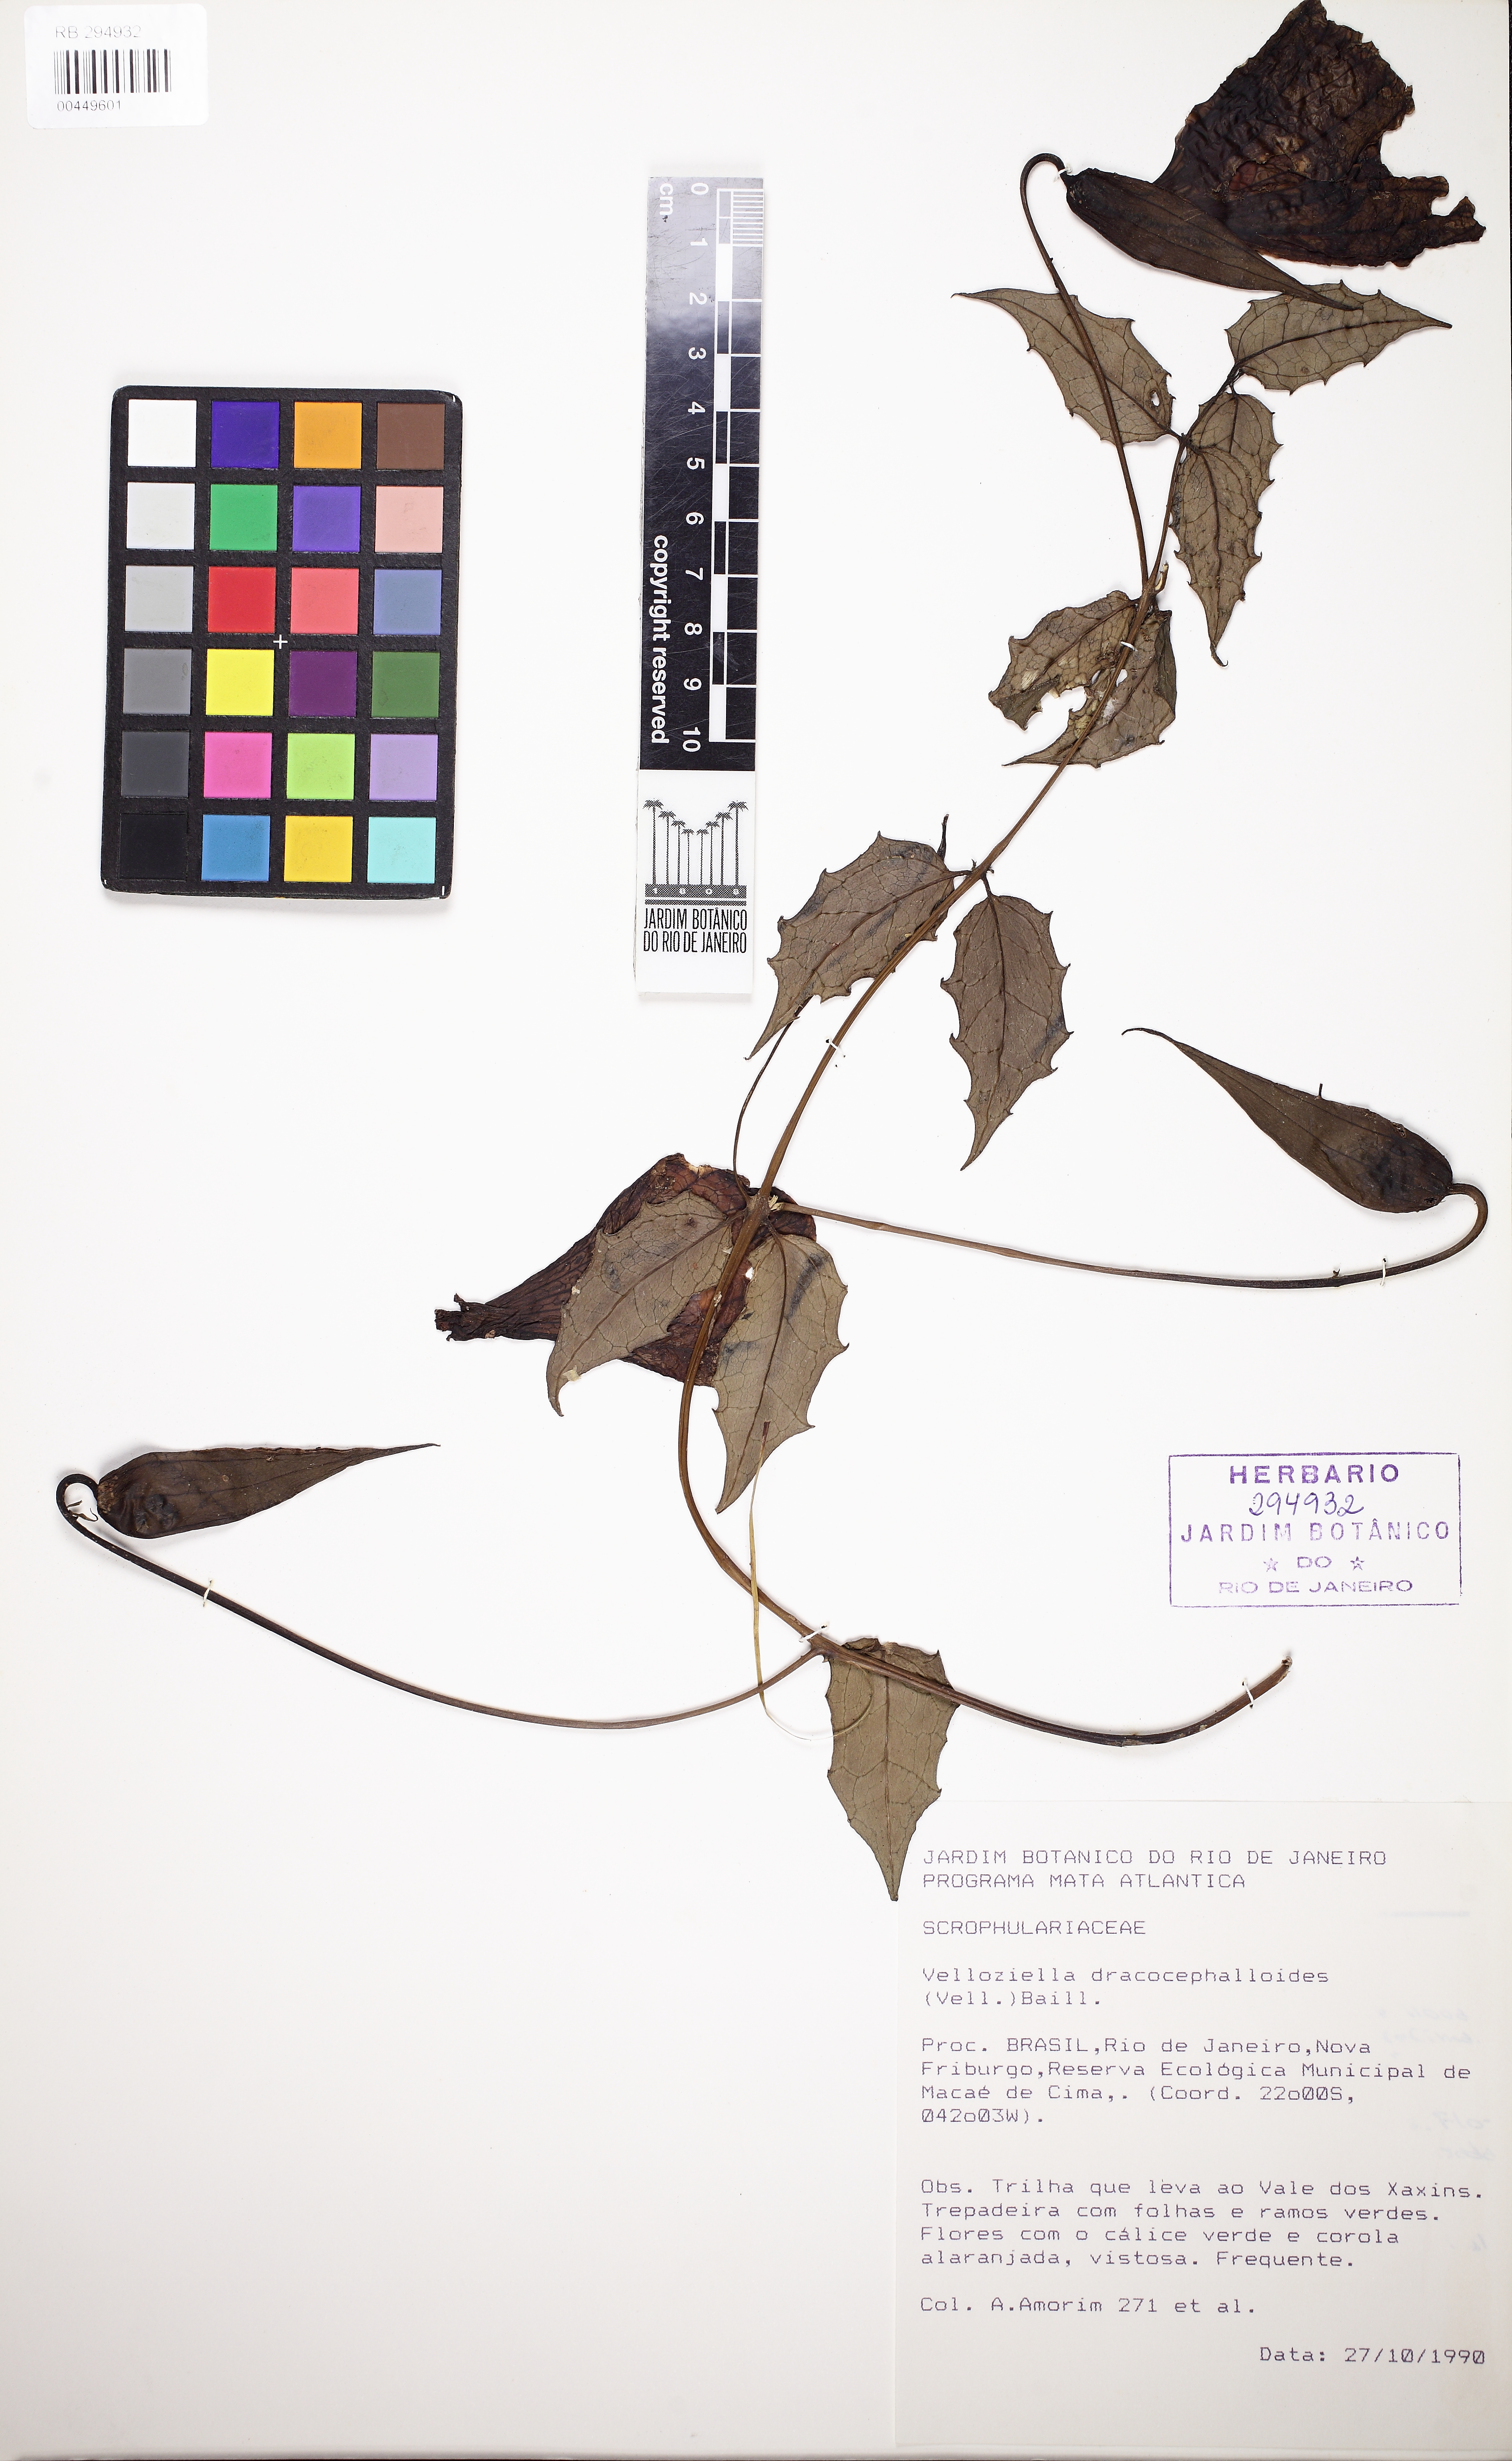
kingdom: Plantae
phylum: Tracheophyta
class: Magnoliopsida
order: Lamiales
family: Orobanchaceae
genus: Vellosiella
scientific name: Vellosiella dracocephaloides
